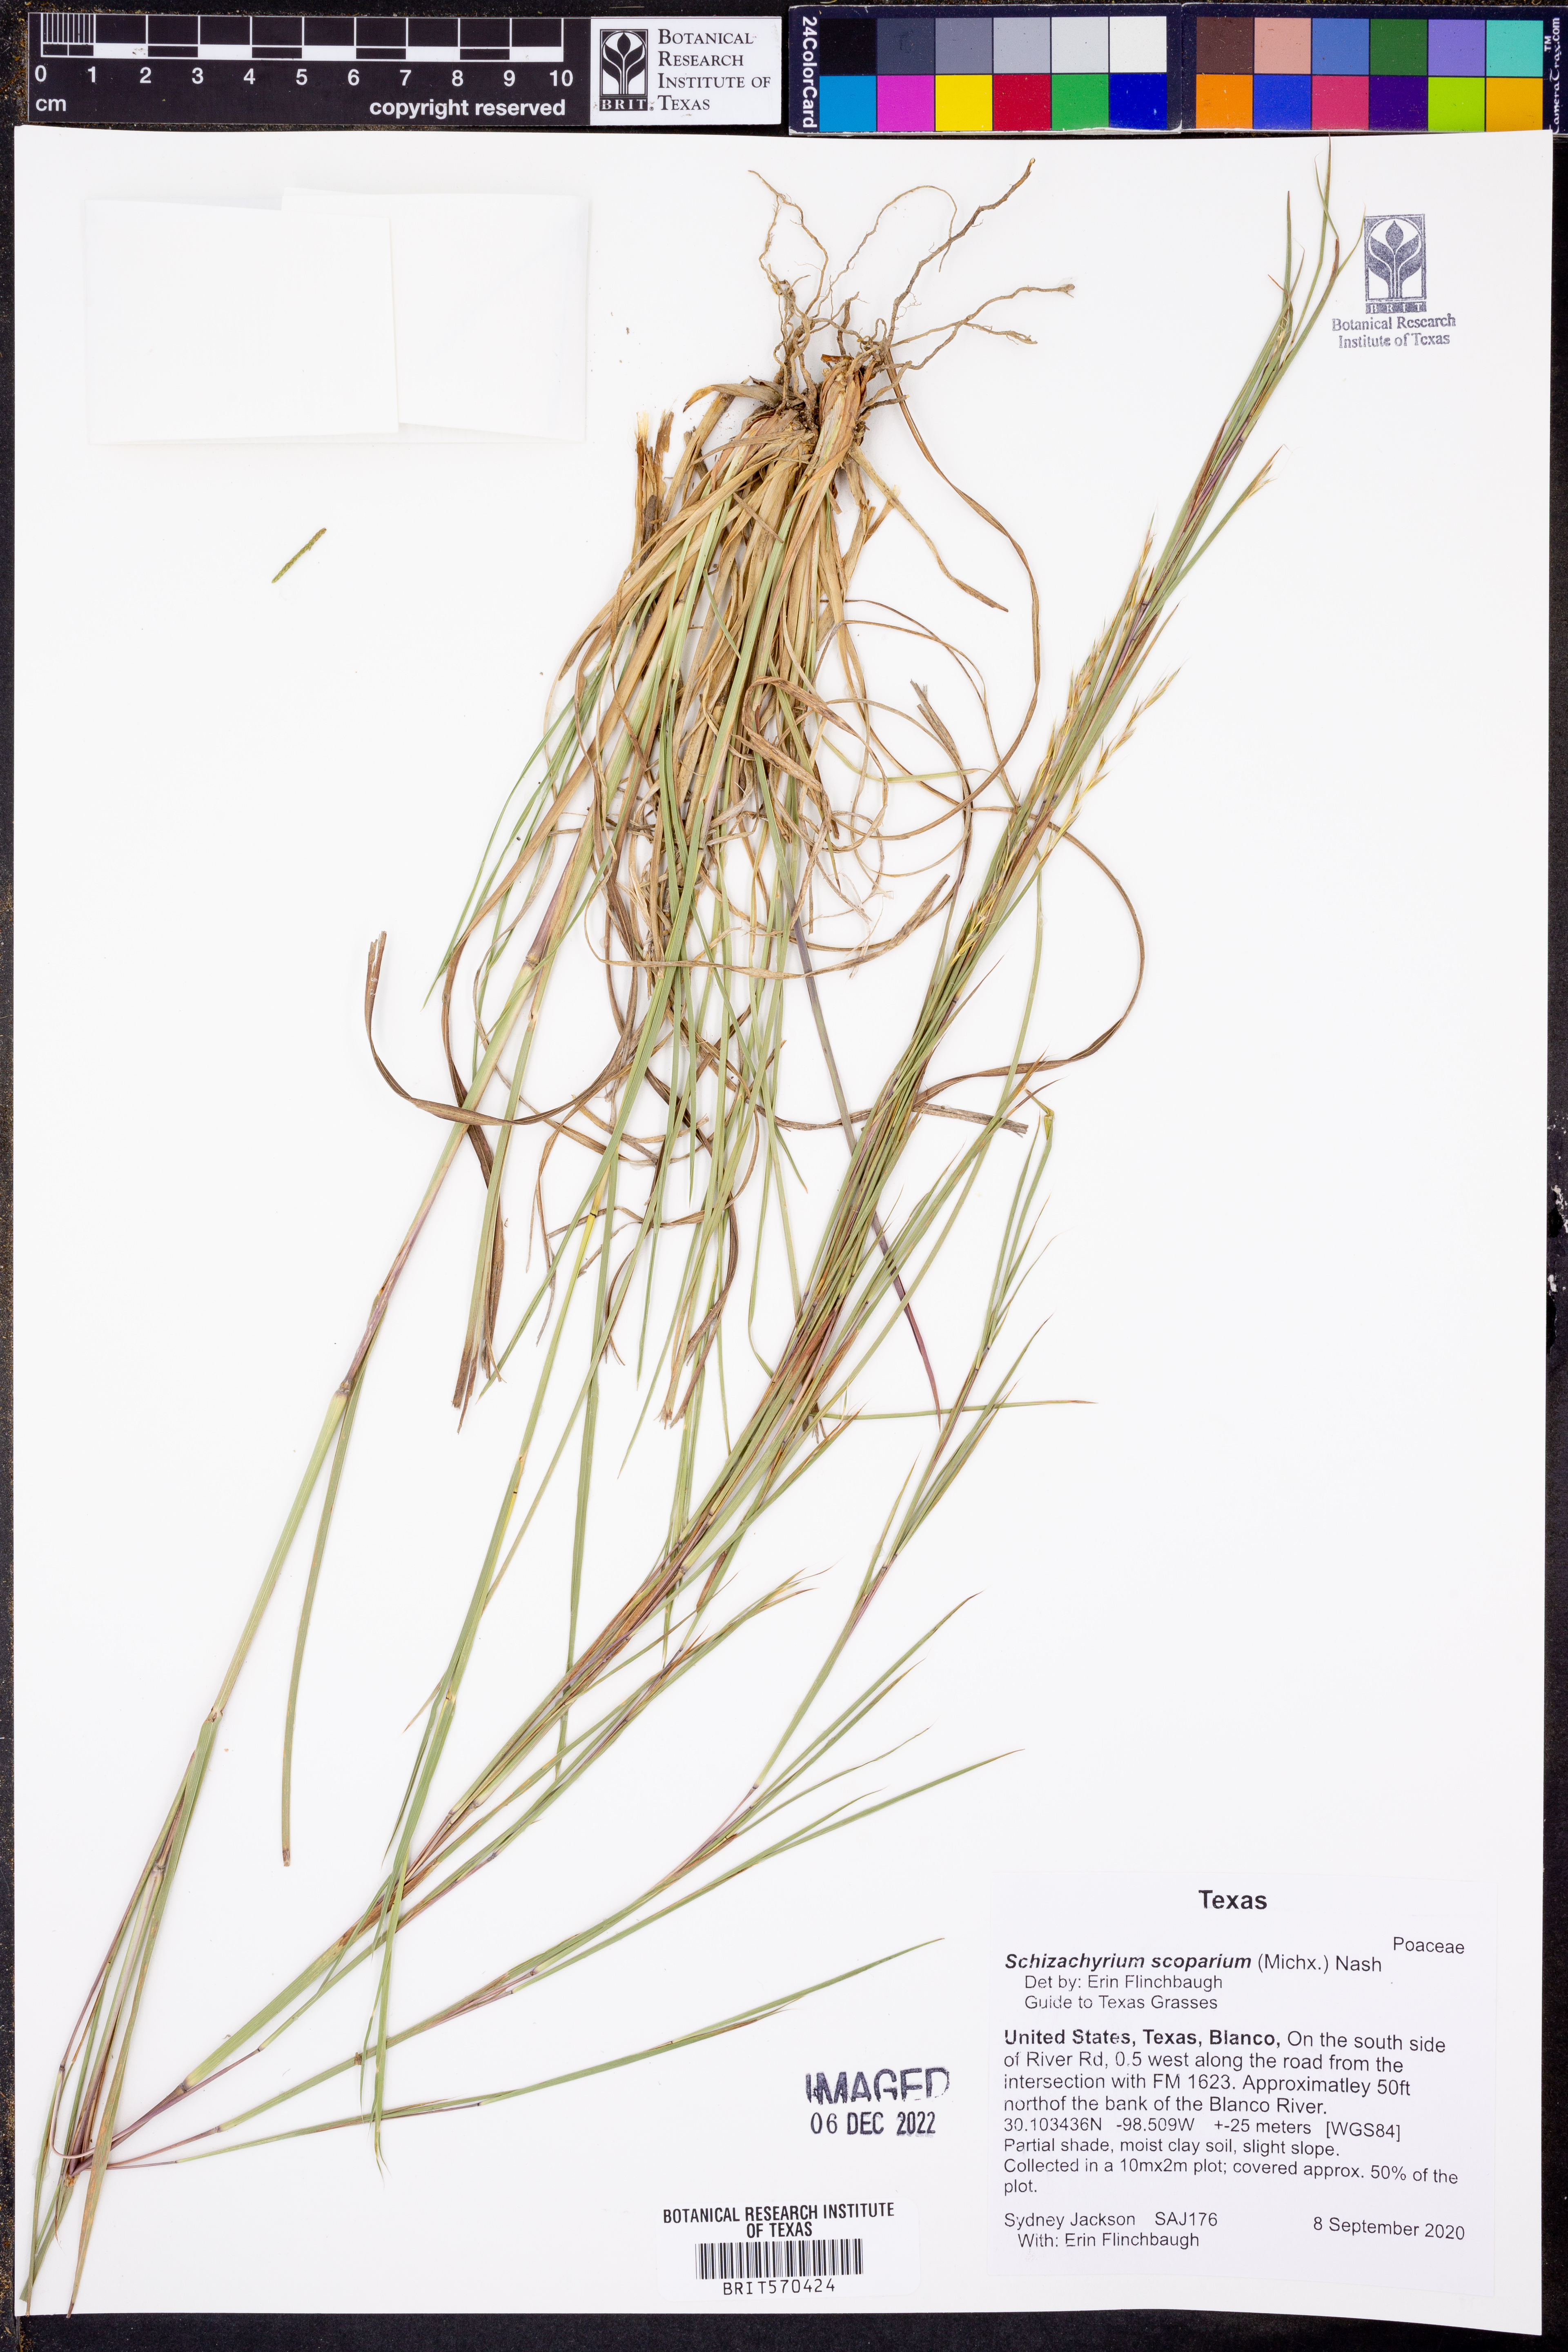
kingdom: Plantae
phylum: Tracheophyta
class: Liliopsida
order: Poales
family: Poaceae
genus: Schizachyrium
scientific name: Schizachyrium scoparium
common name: Little bluestem
